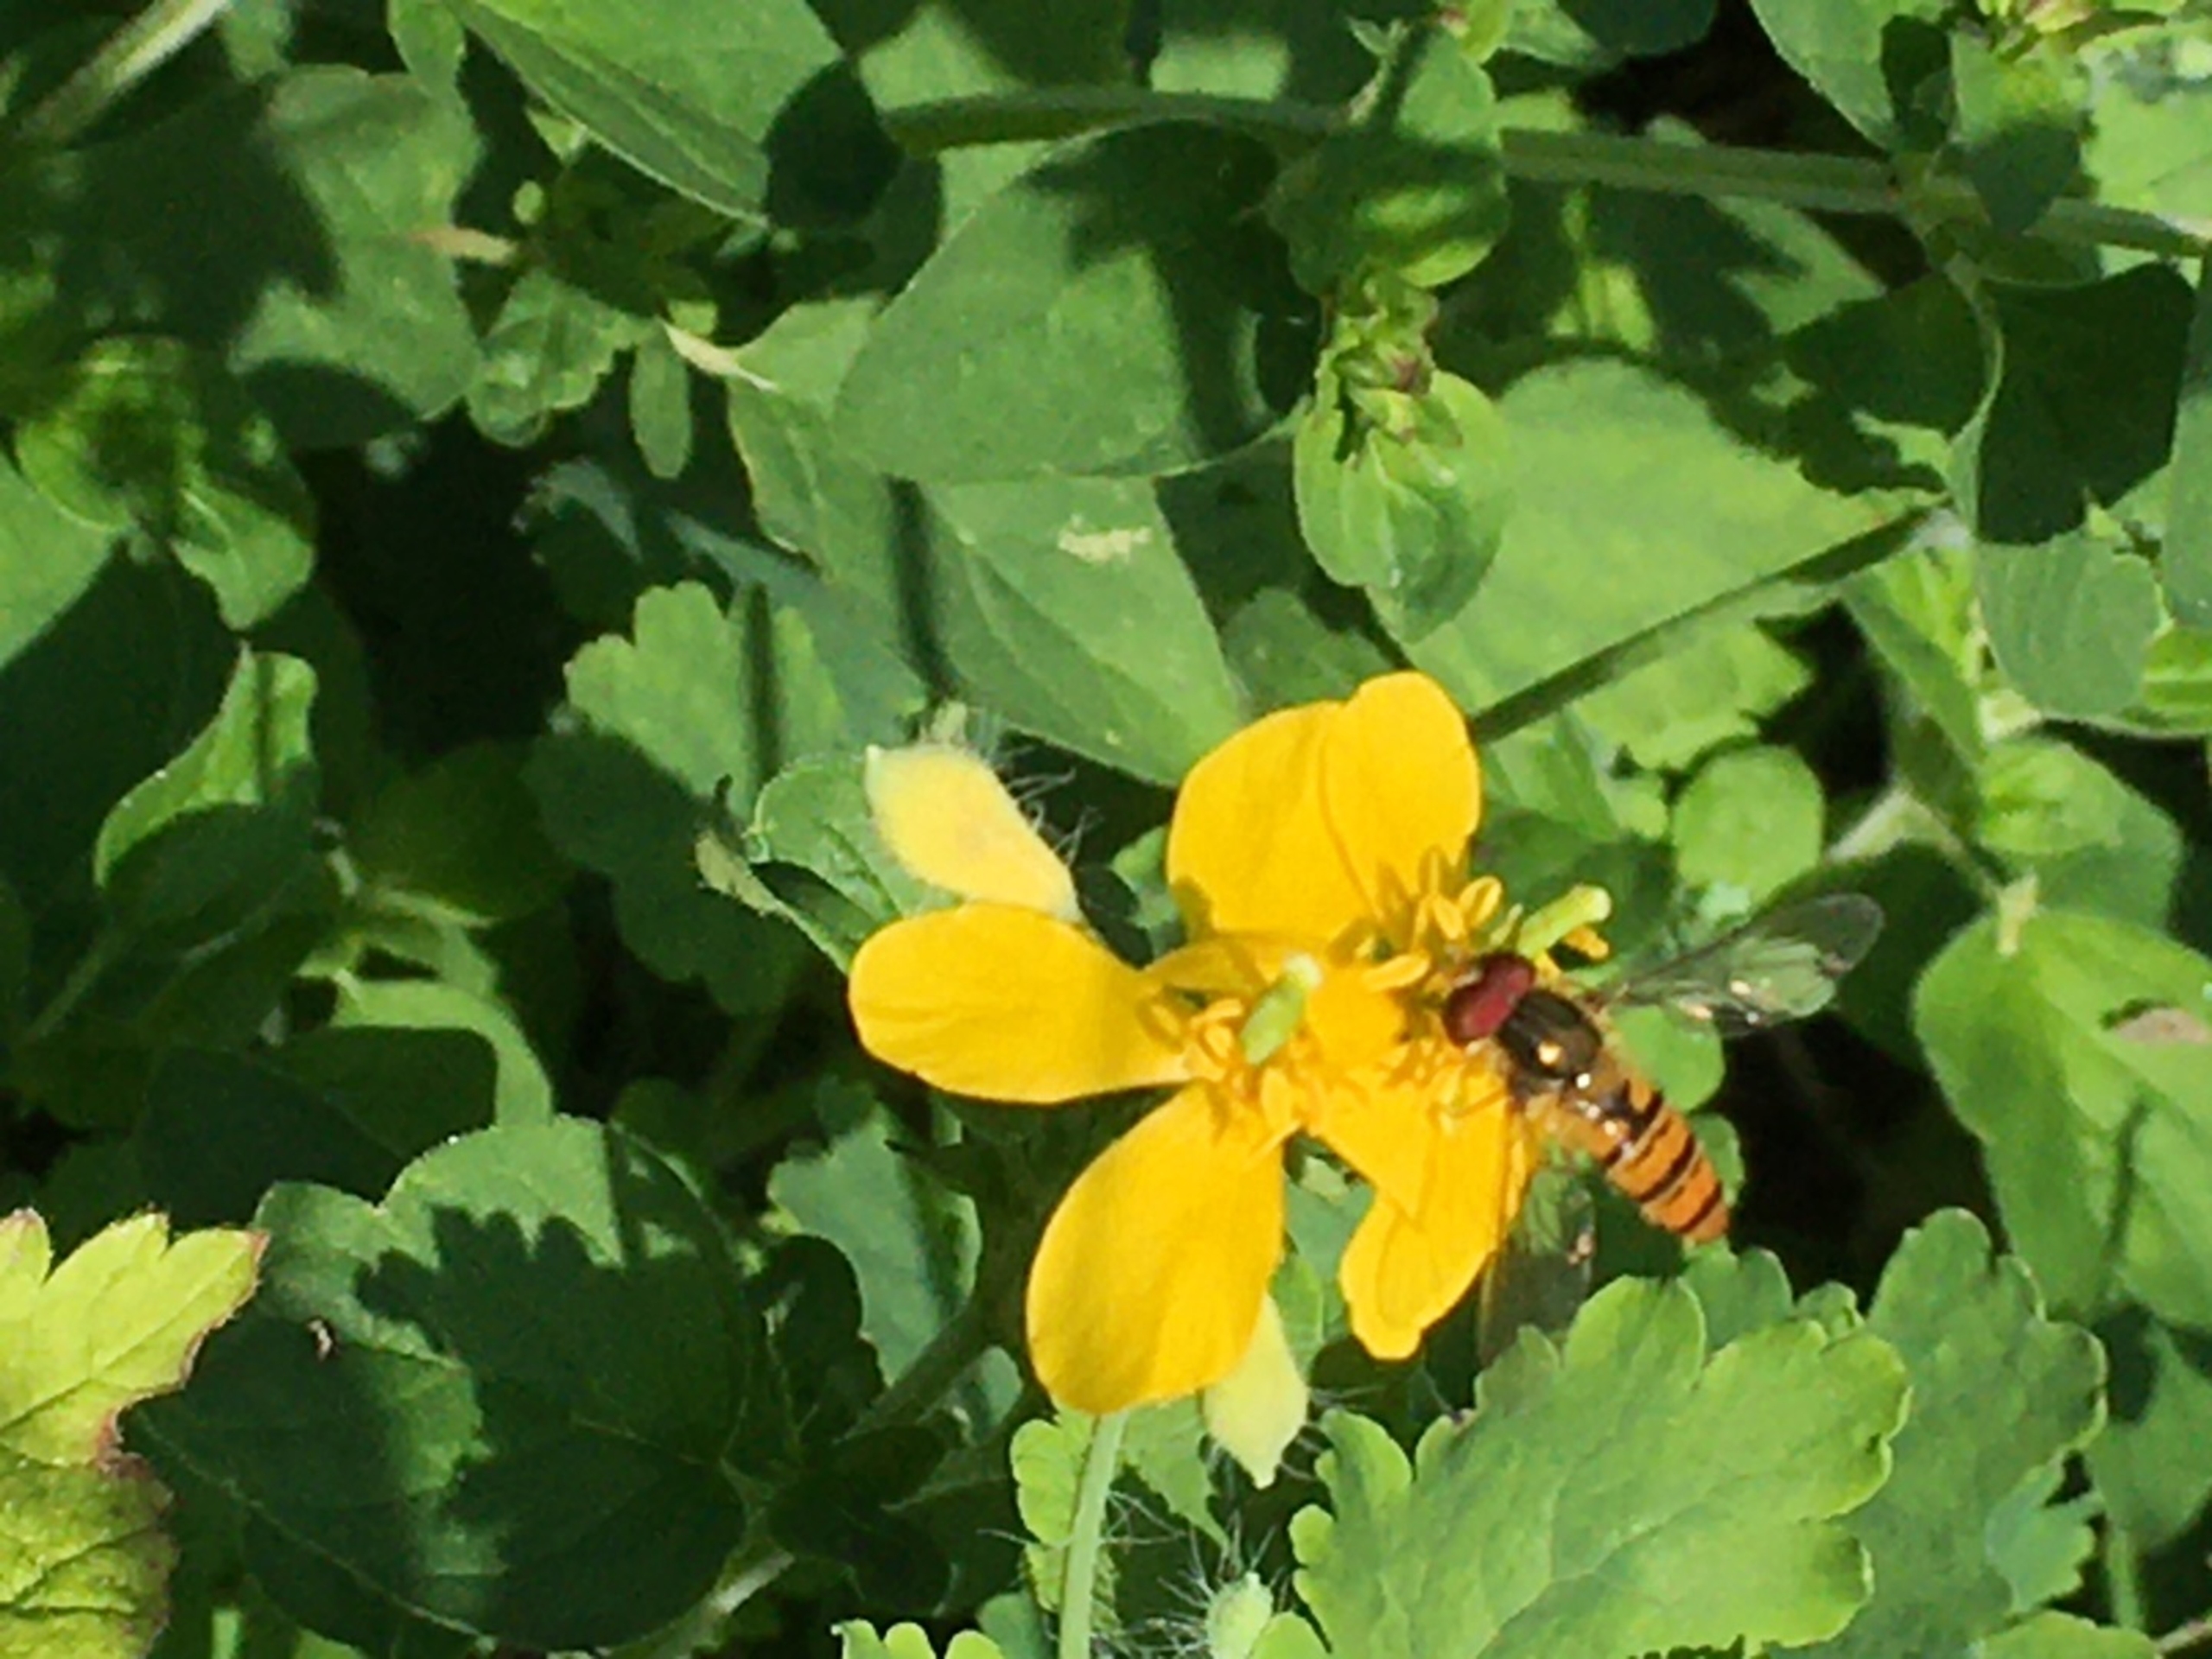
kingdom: Plantae
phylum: Tracheophyta
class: Magnoliopsida
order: Ranunculales
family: Papaveraceae
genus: Chelidonium
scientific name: Chelidonium majus
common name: Svaleurt
